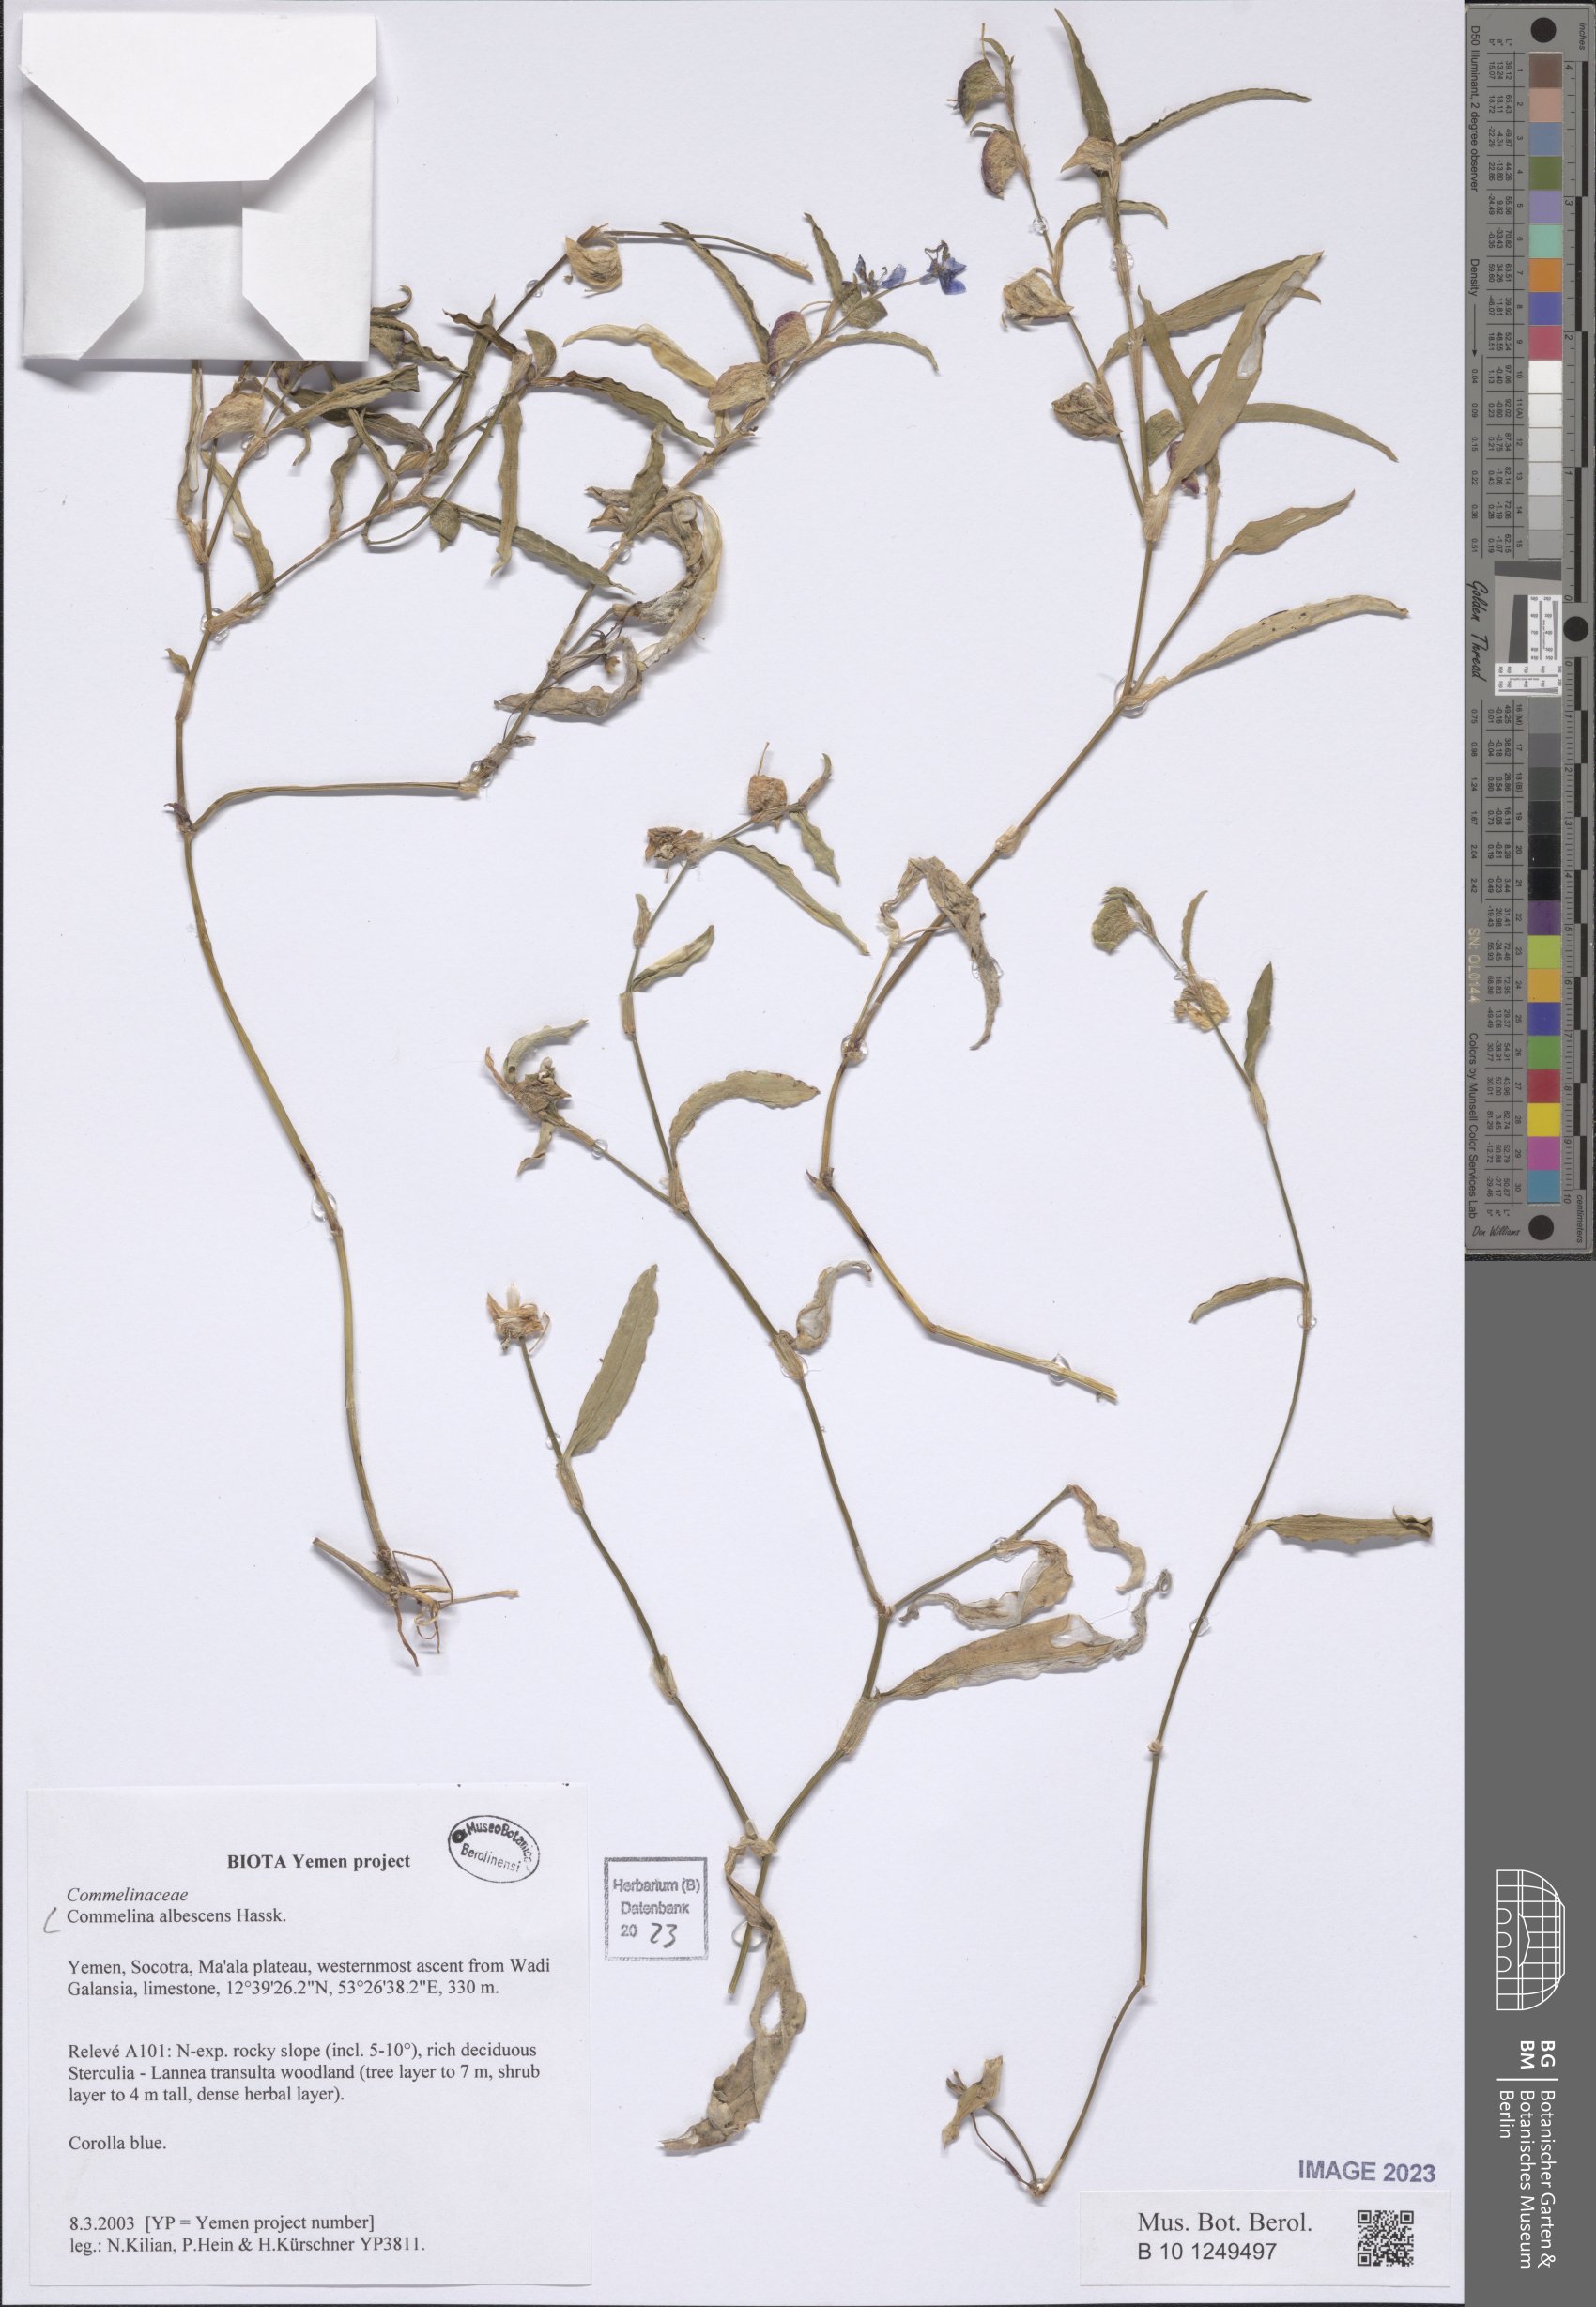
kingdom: Plantae
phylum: Tracheophyta
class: Liliopsida
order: Commelinales
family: Commelinaceae
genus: Commelina
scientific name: Commelina albescens
